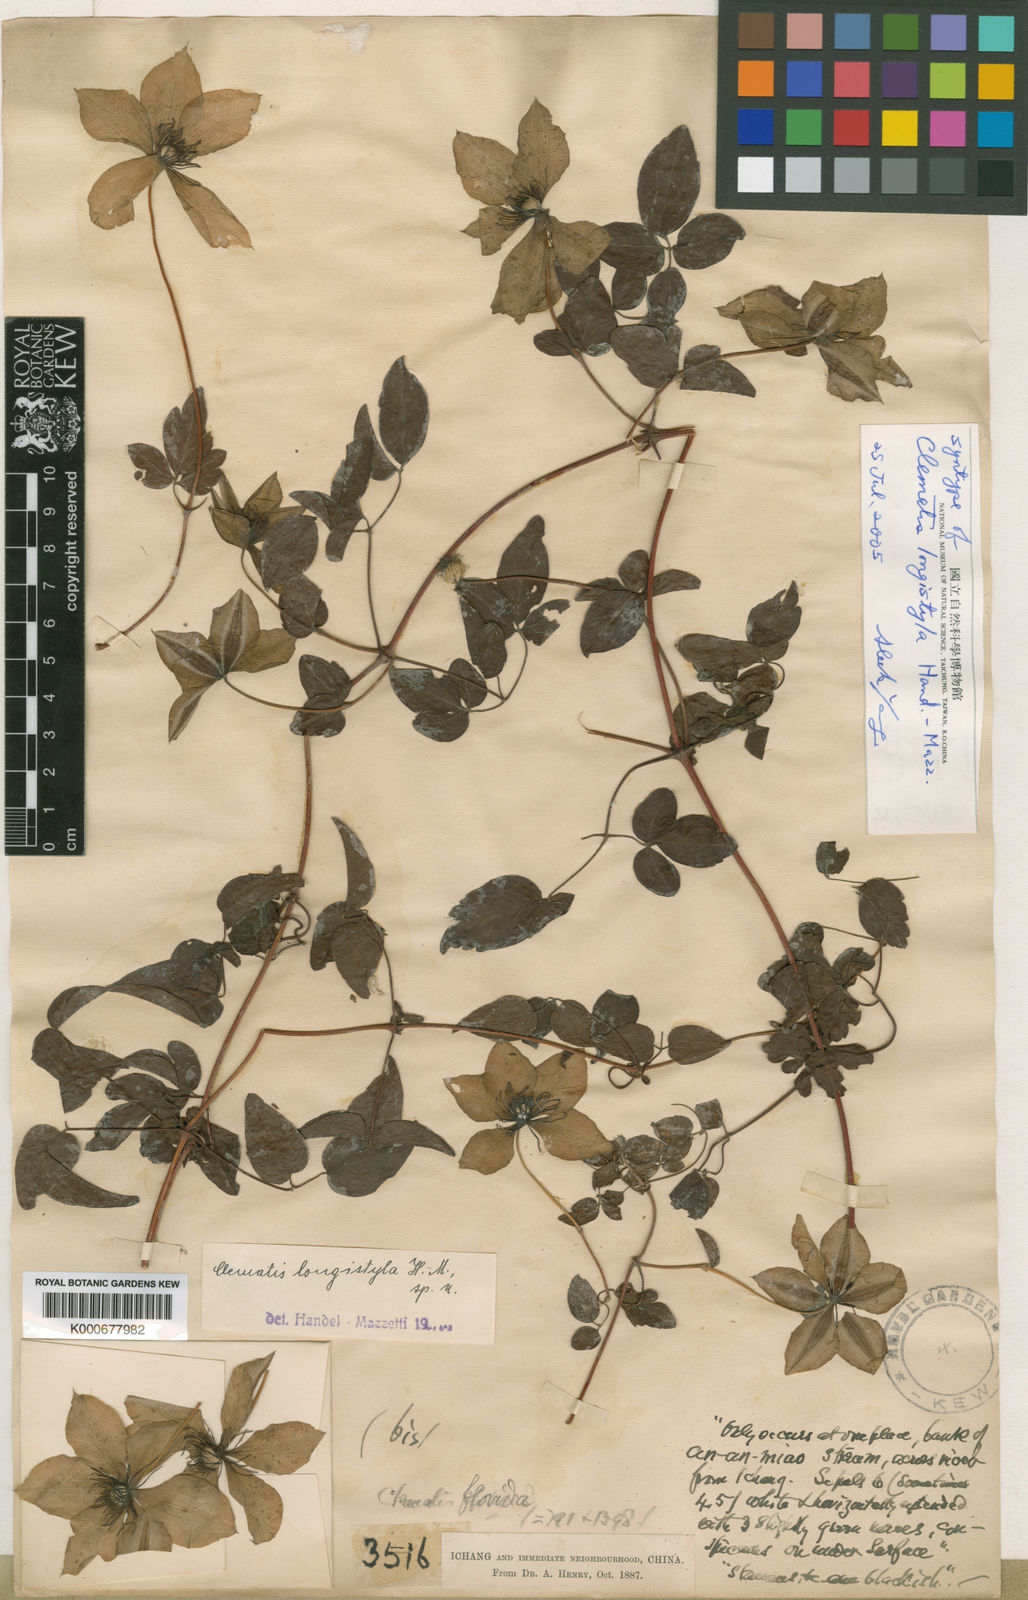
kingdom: Plantae
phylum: Tracheophyta
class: Magnoliopsida
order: Ranunculales
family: Ranunculaceae
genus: Clematis
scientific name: Clematis longistyla
